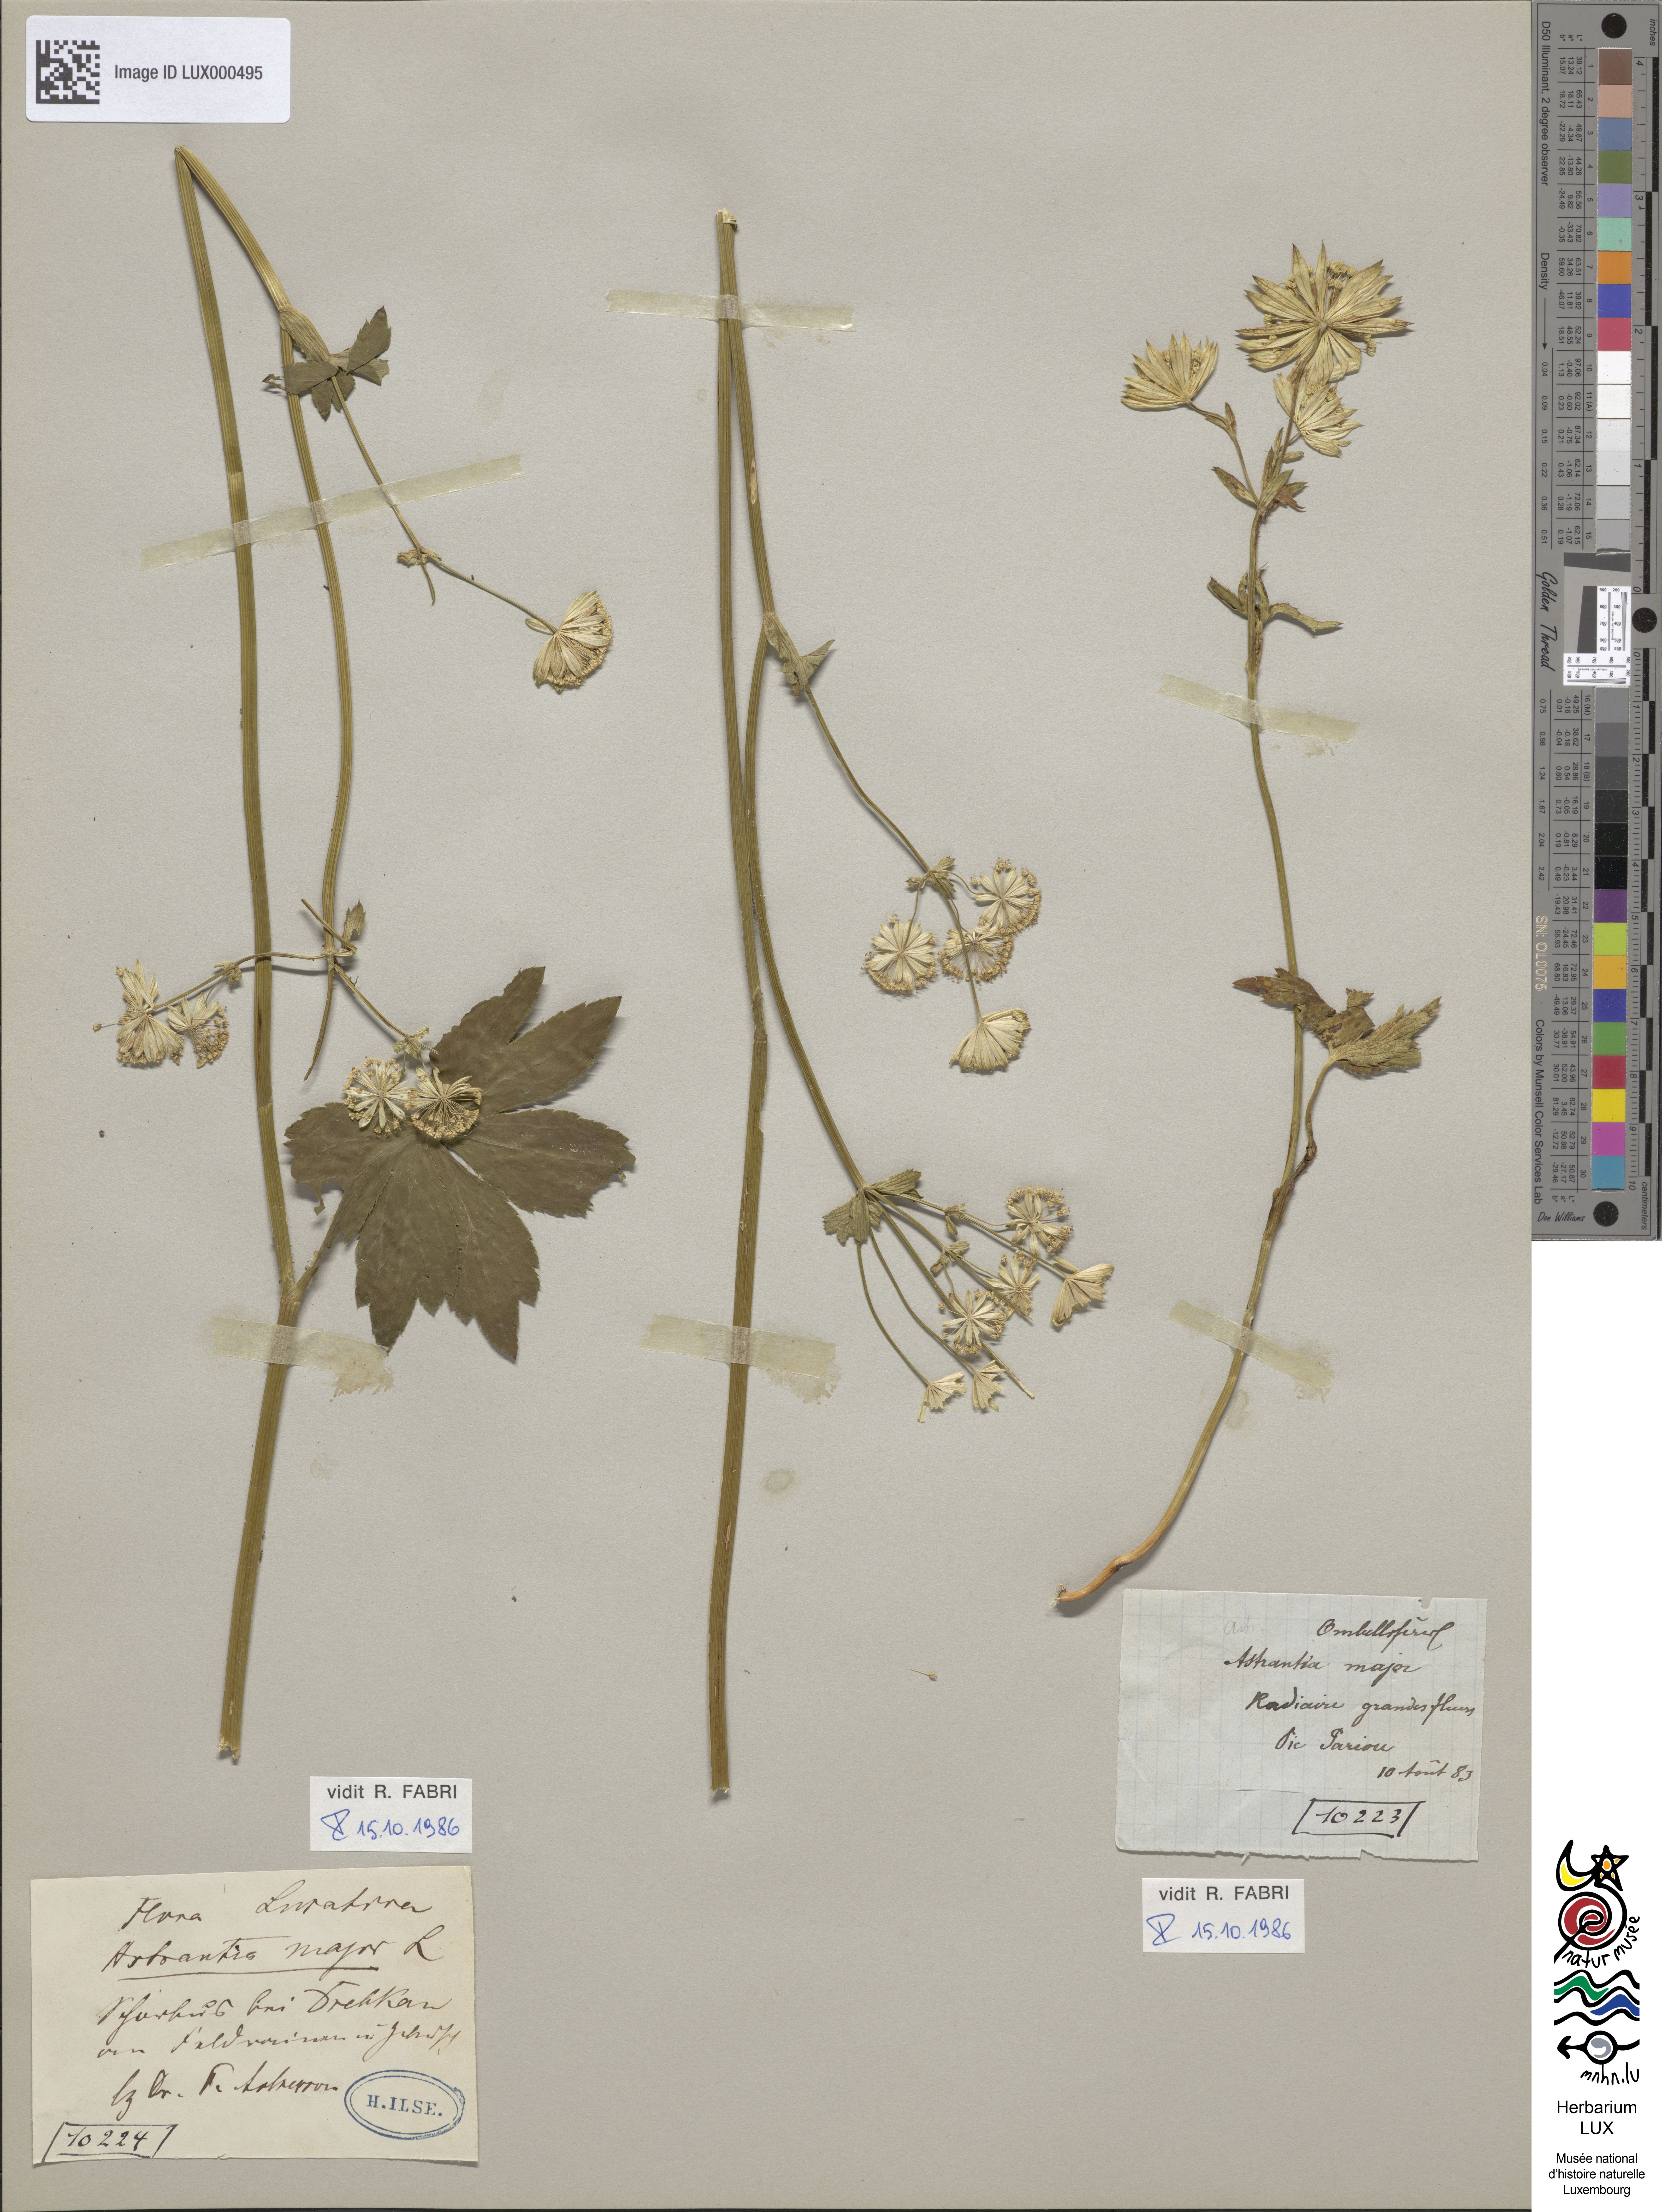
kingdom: Plantae
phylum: Tracheophyta
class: Magnoliopsida
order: Apiales
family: Apiaceae
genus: Astrantia
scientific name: Astrantia major
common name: Greater masterwort
